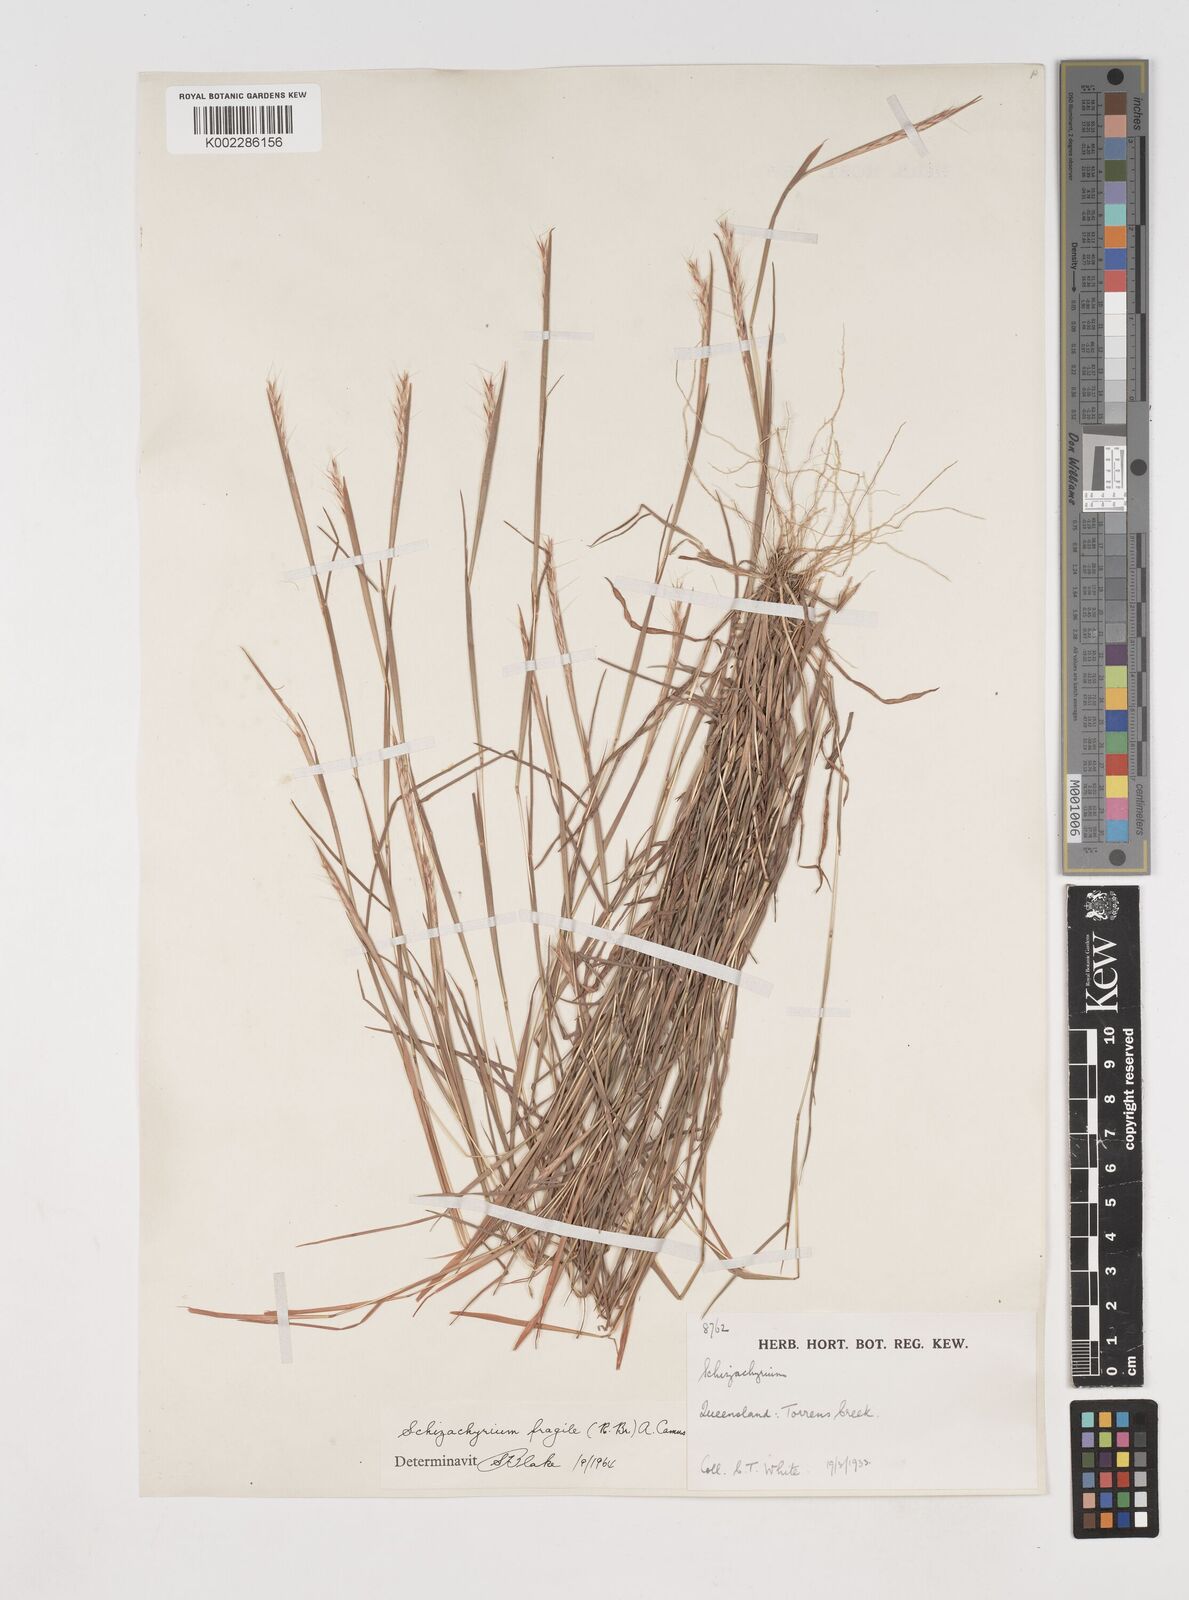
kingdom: Plantae
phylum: Tracheophyta
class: Liliopsida
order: Poales
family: Poaceae
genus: Schizachyrium
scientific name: Schizachyrium fragile
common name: Red spathe grass
